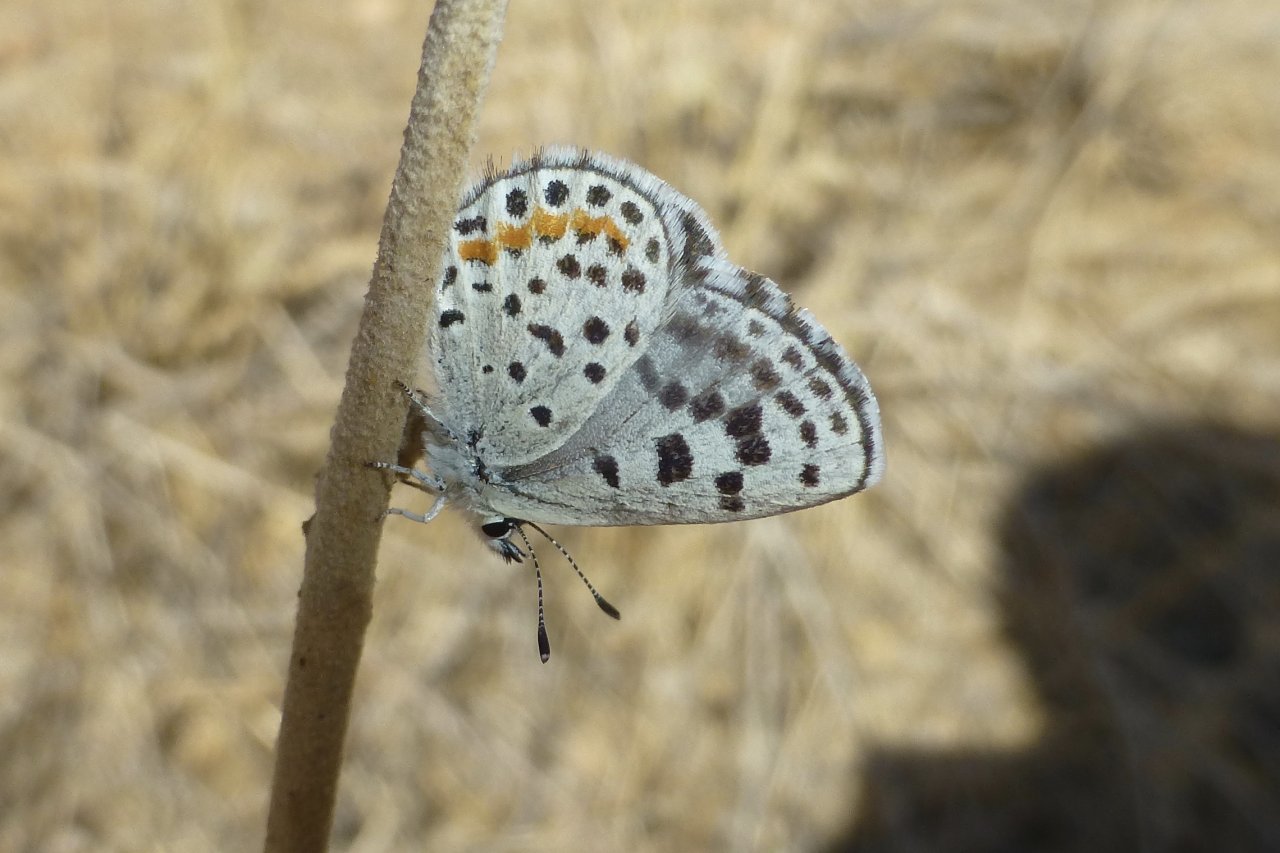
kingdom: Animalia
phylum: Arthropoda
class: Insecta
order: Lepidoptera
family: Lycaenidae
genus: Euphilotes
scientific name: Euphilotes enoptes
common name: Dotted Blue
